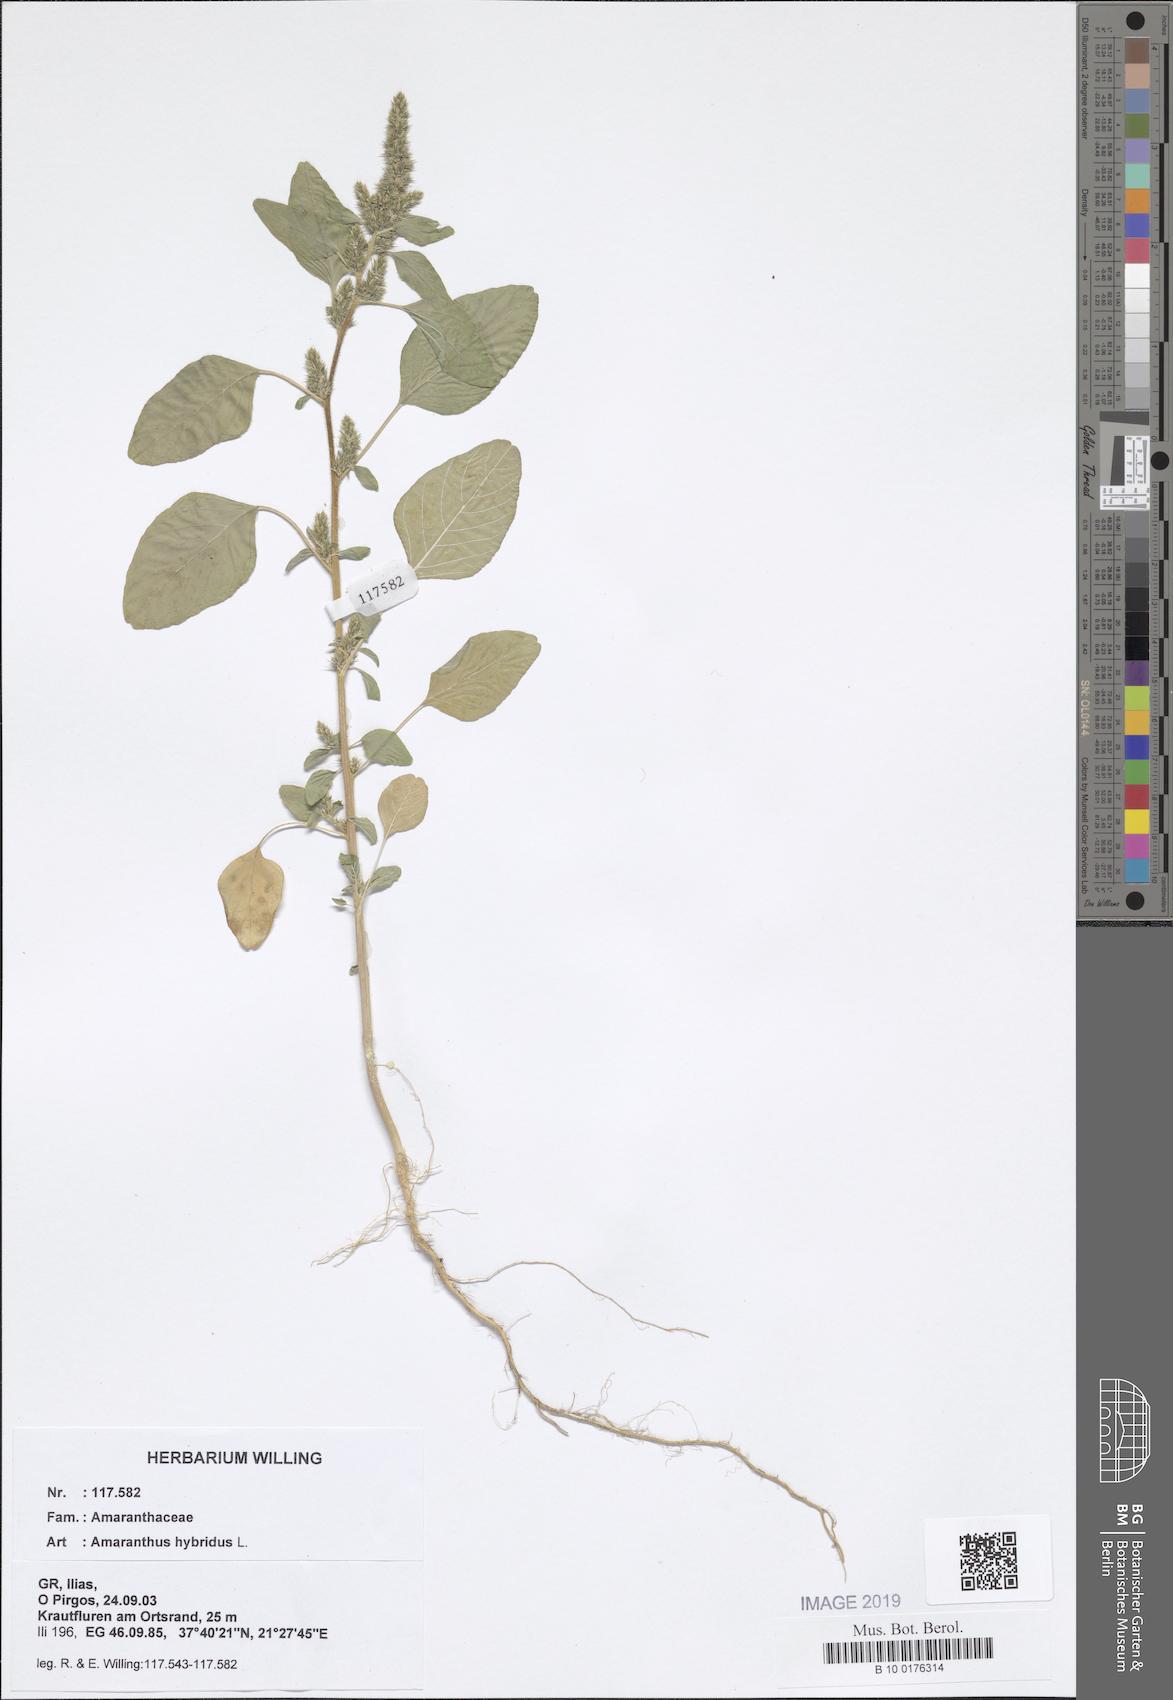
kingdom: Plantae
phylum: Tracheophyta
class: Magnoliopsida
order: Caryophyllales
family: Amaranthaceae
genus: Amaranthus
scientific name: Amaranthus hybridus
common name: Green amaranth
